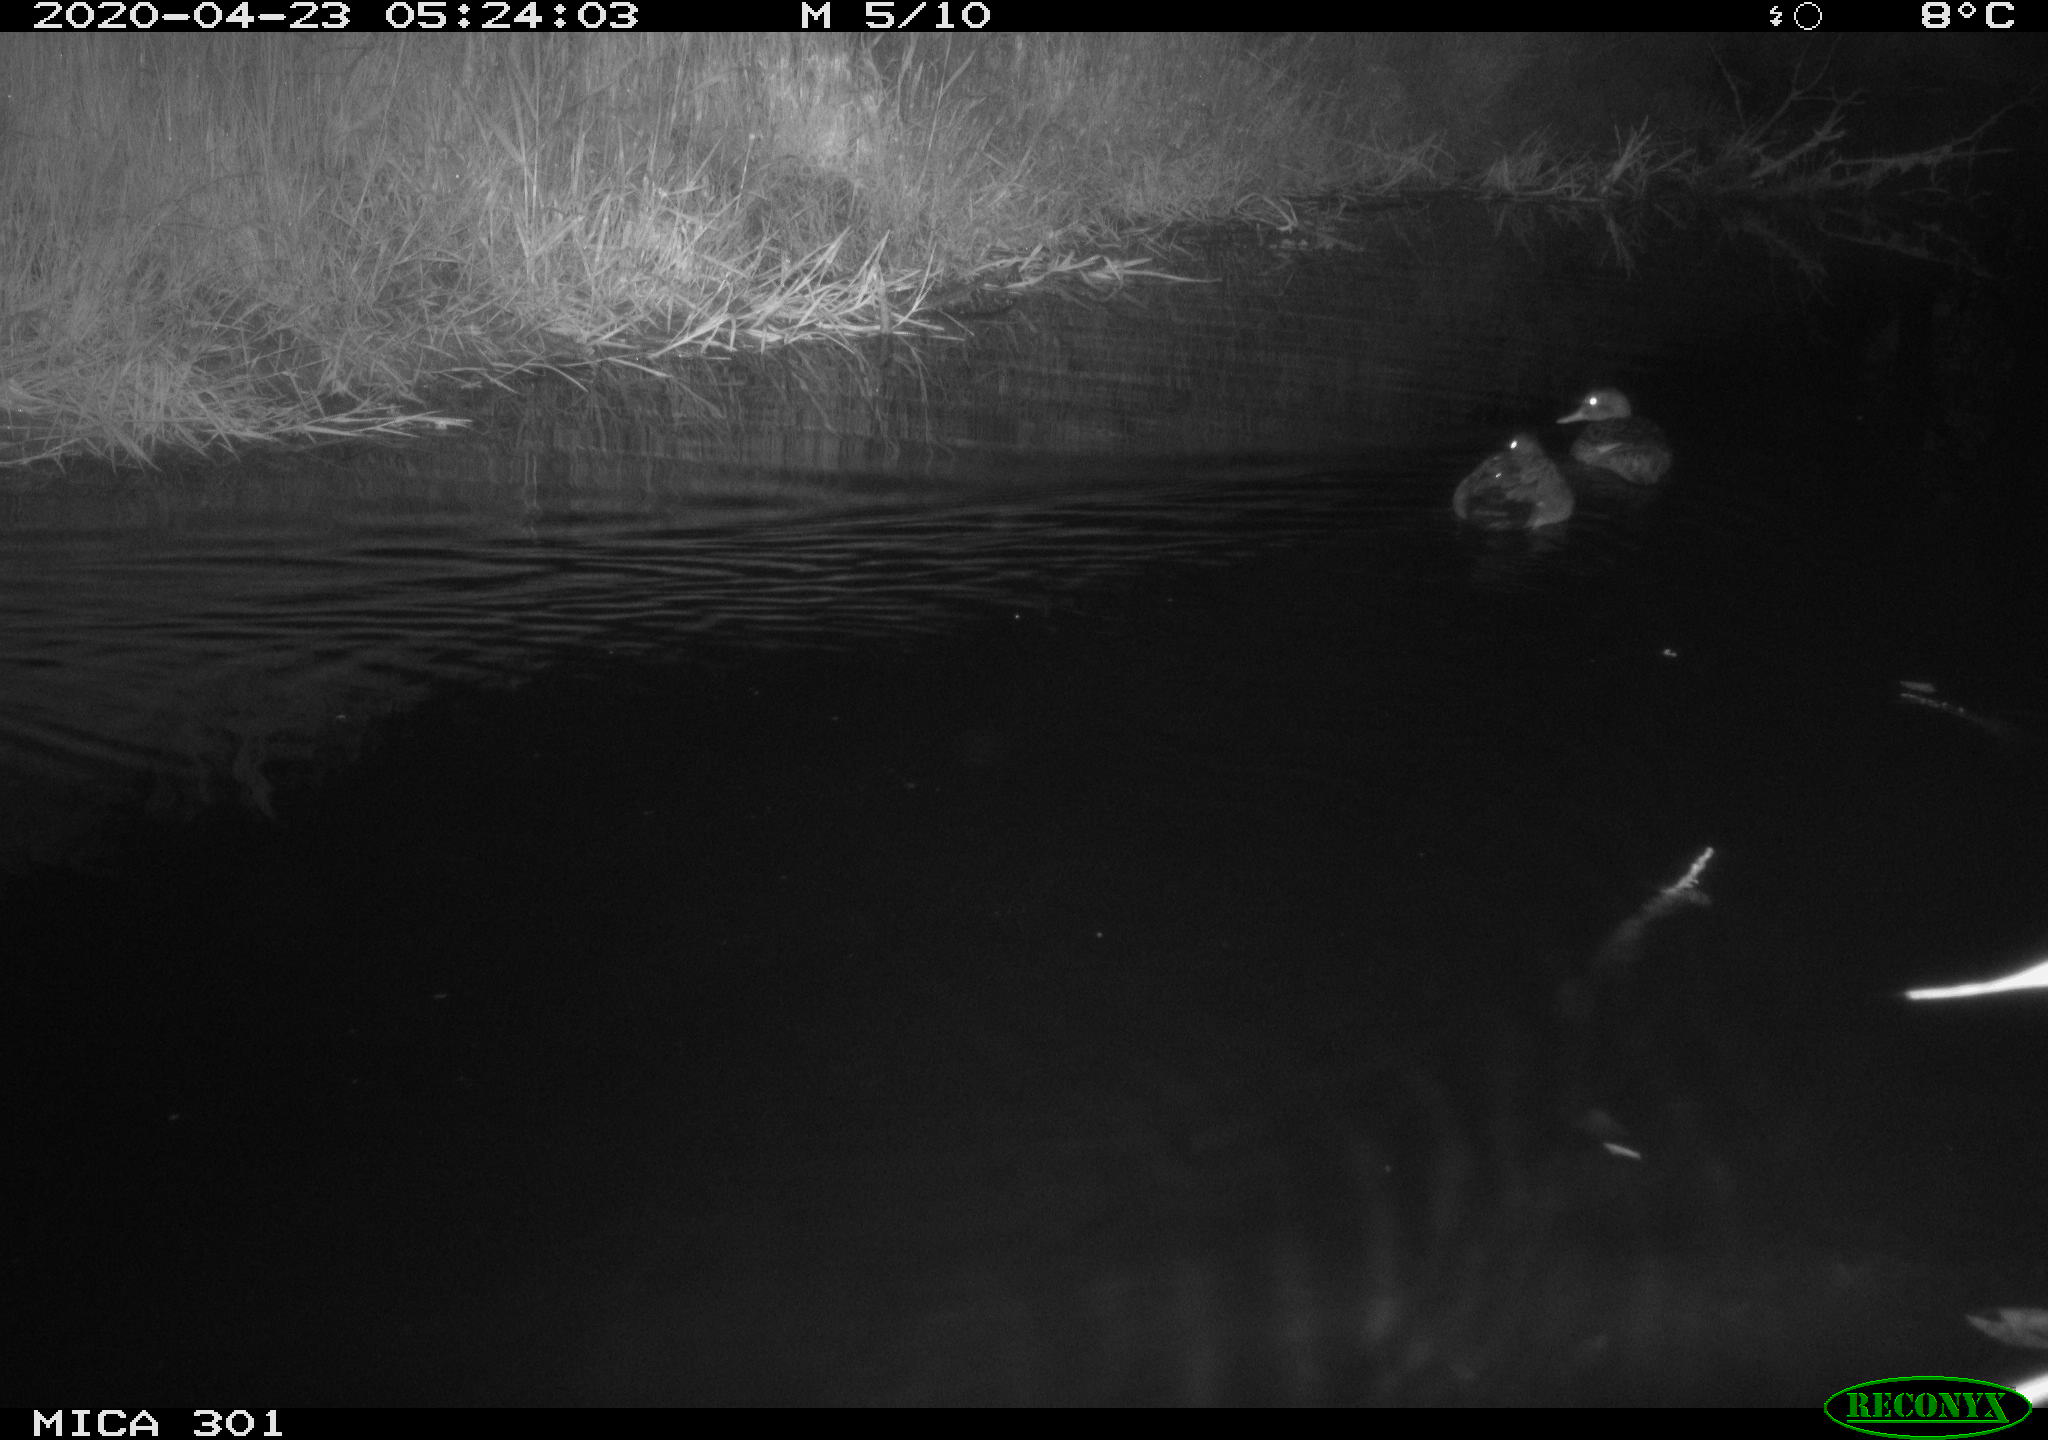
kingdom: Animalia
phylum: Chordata
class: Aves
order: Anseriformes
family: Anatidae
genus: Mareca
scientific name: Mareca strepera
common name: Gadwall
